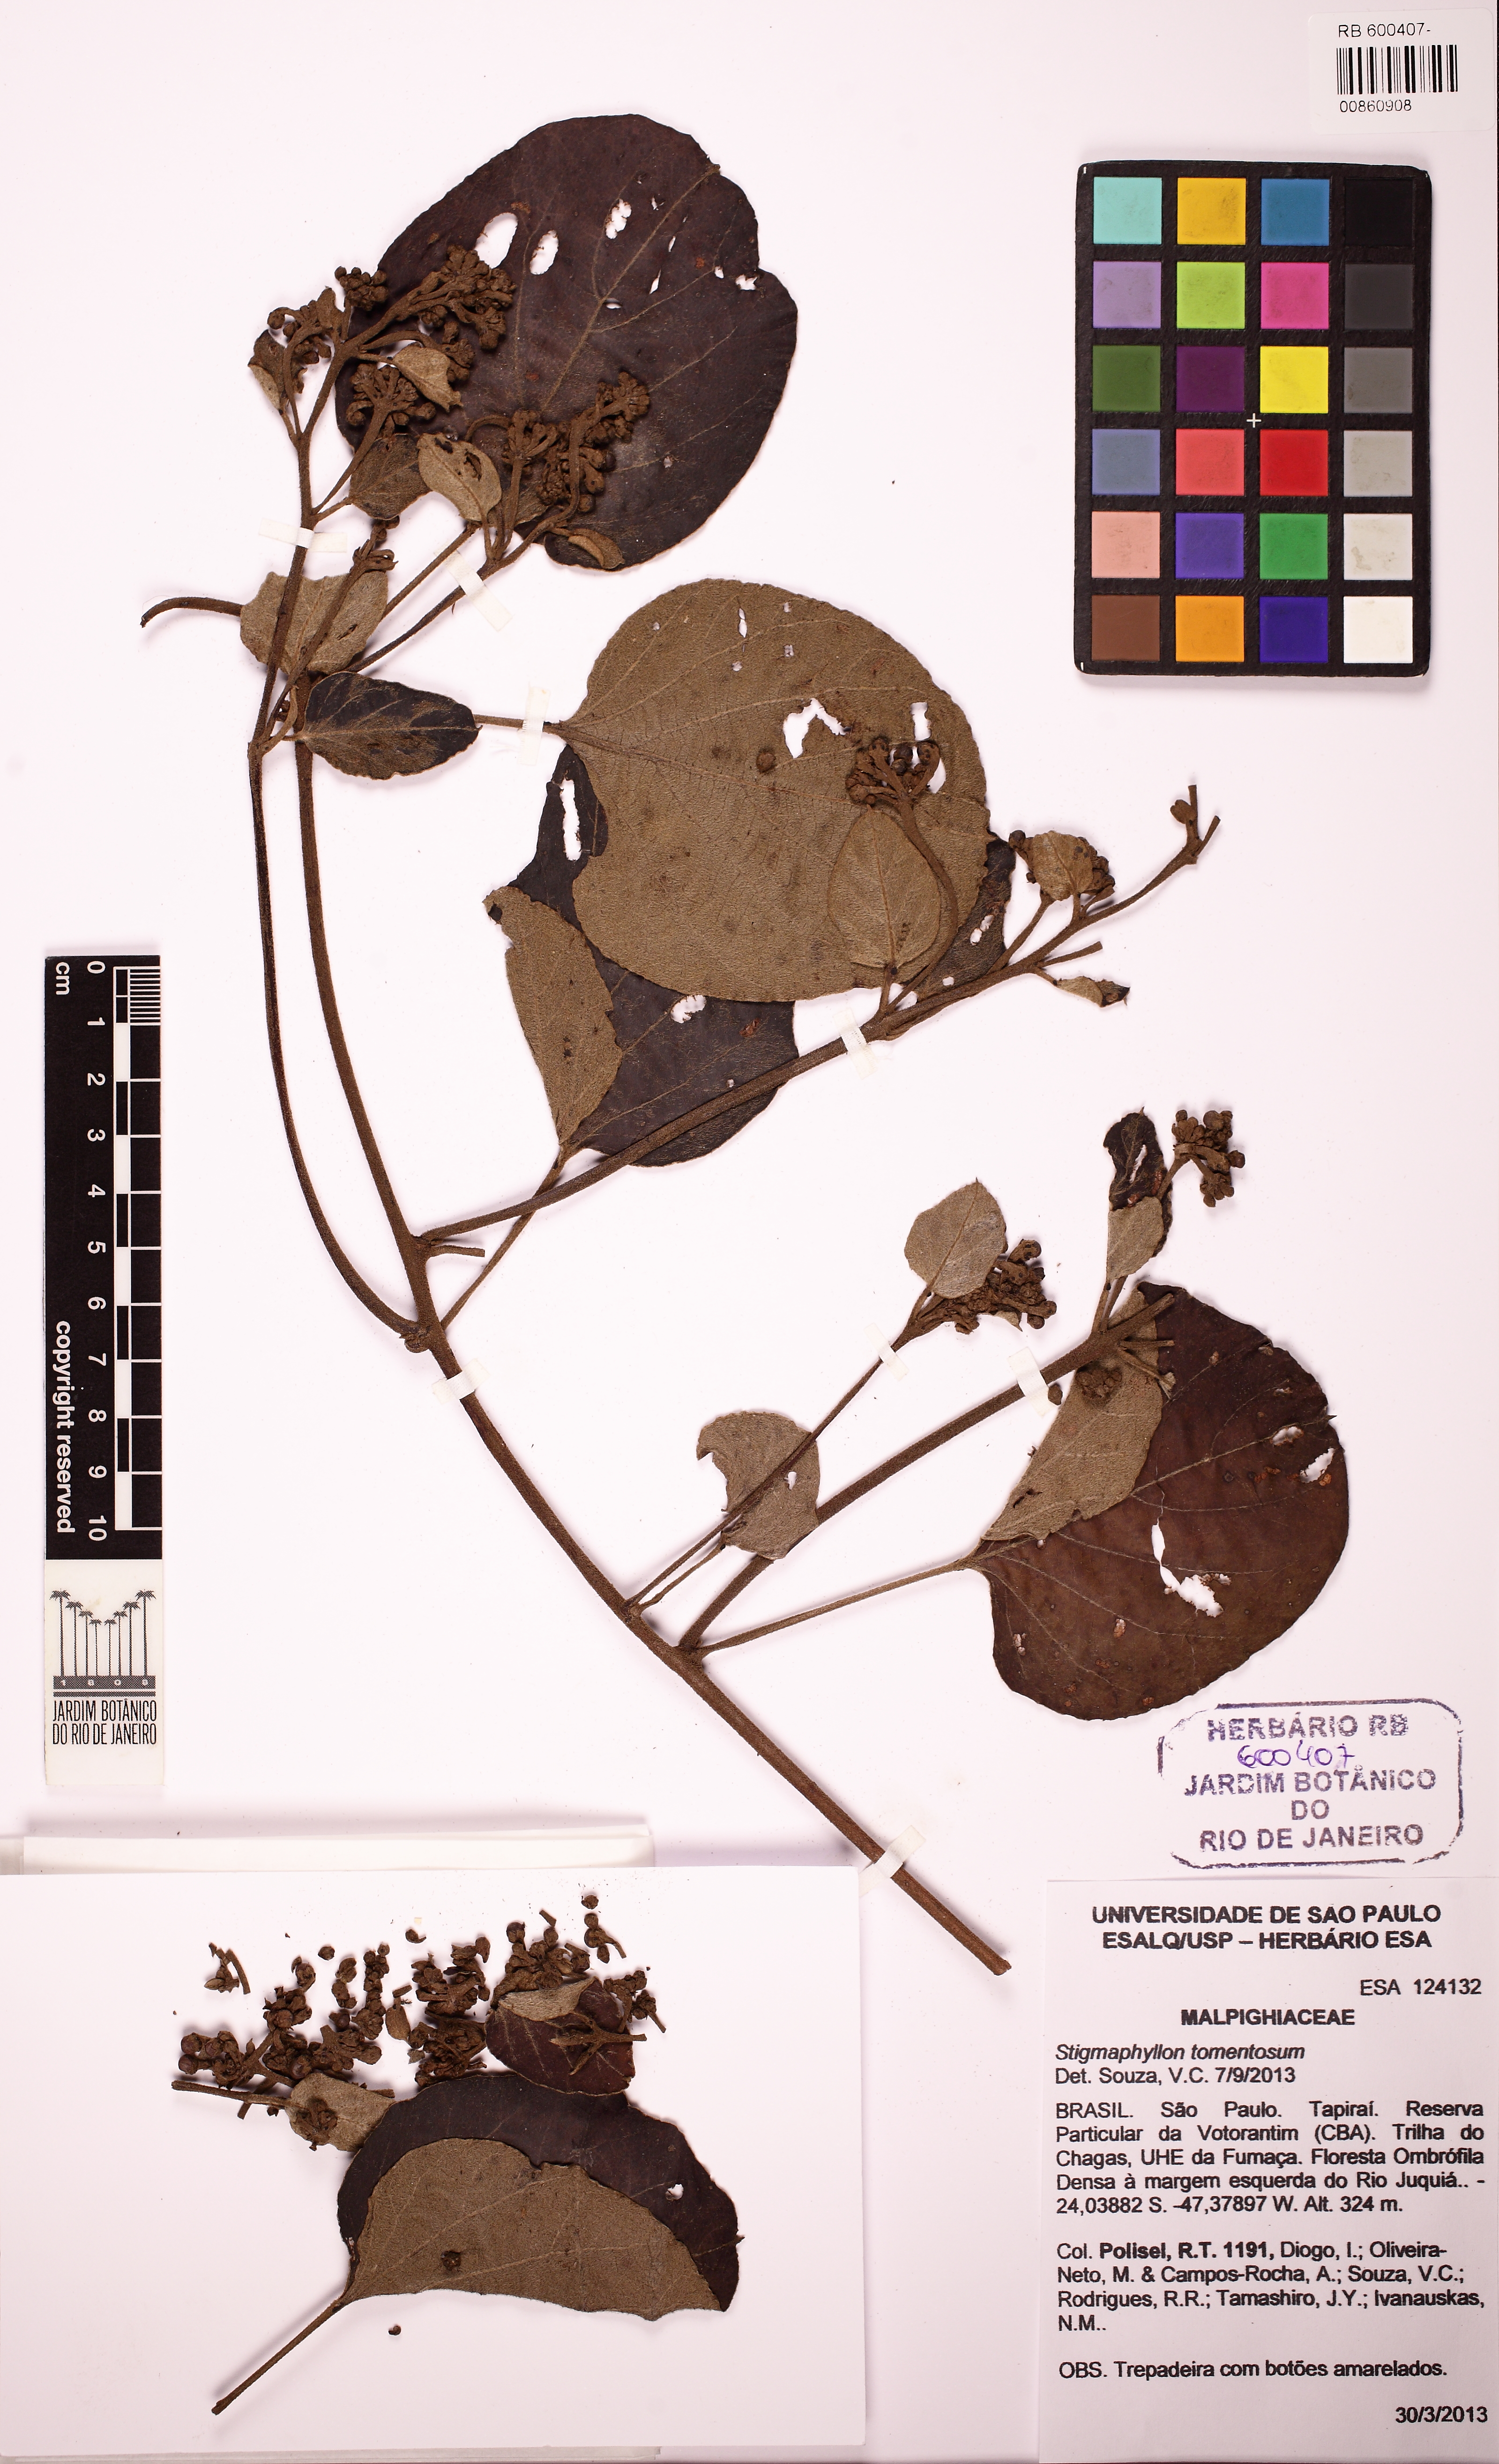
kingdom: Plantae
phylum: Tracheophyta
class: Magnoliopsida
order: Malpighiales
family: Malpighiaceae
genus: Stigmaphyllon
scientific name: Stigmaphyllon tomentosum
